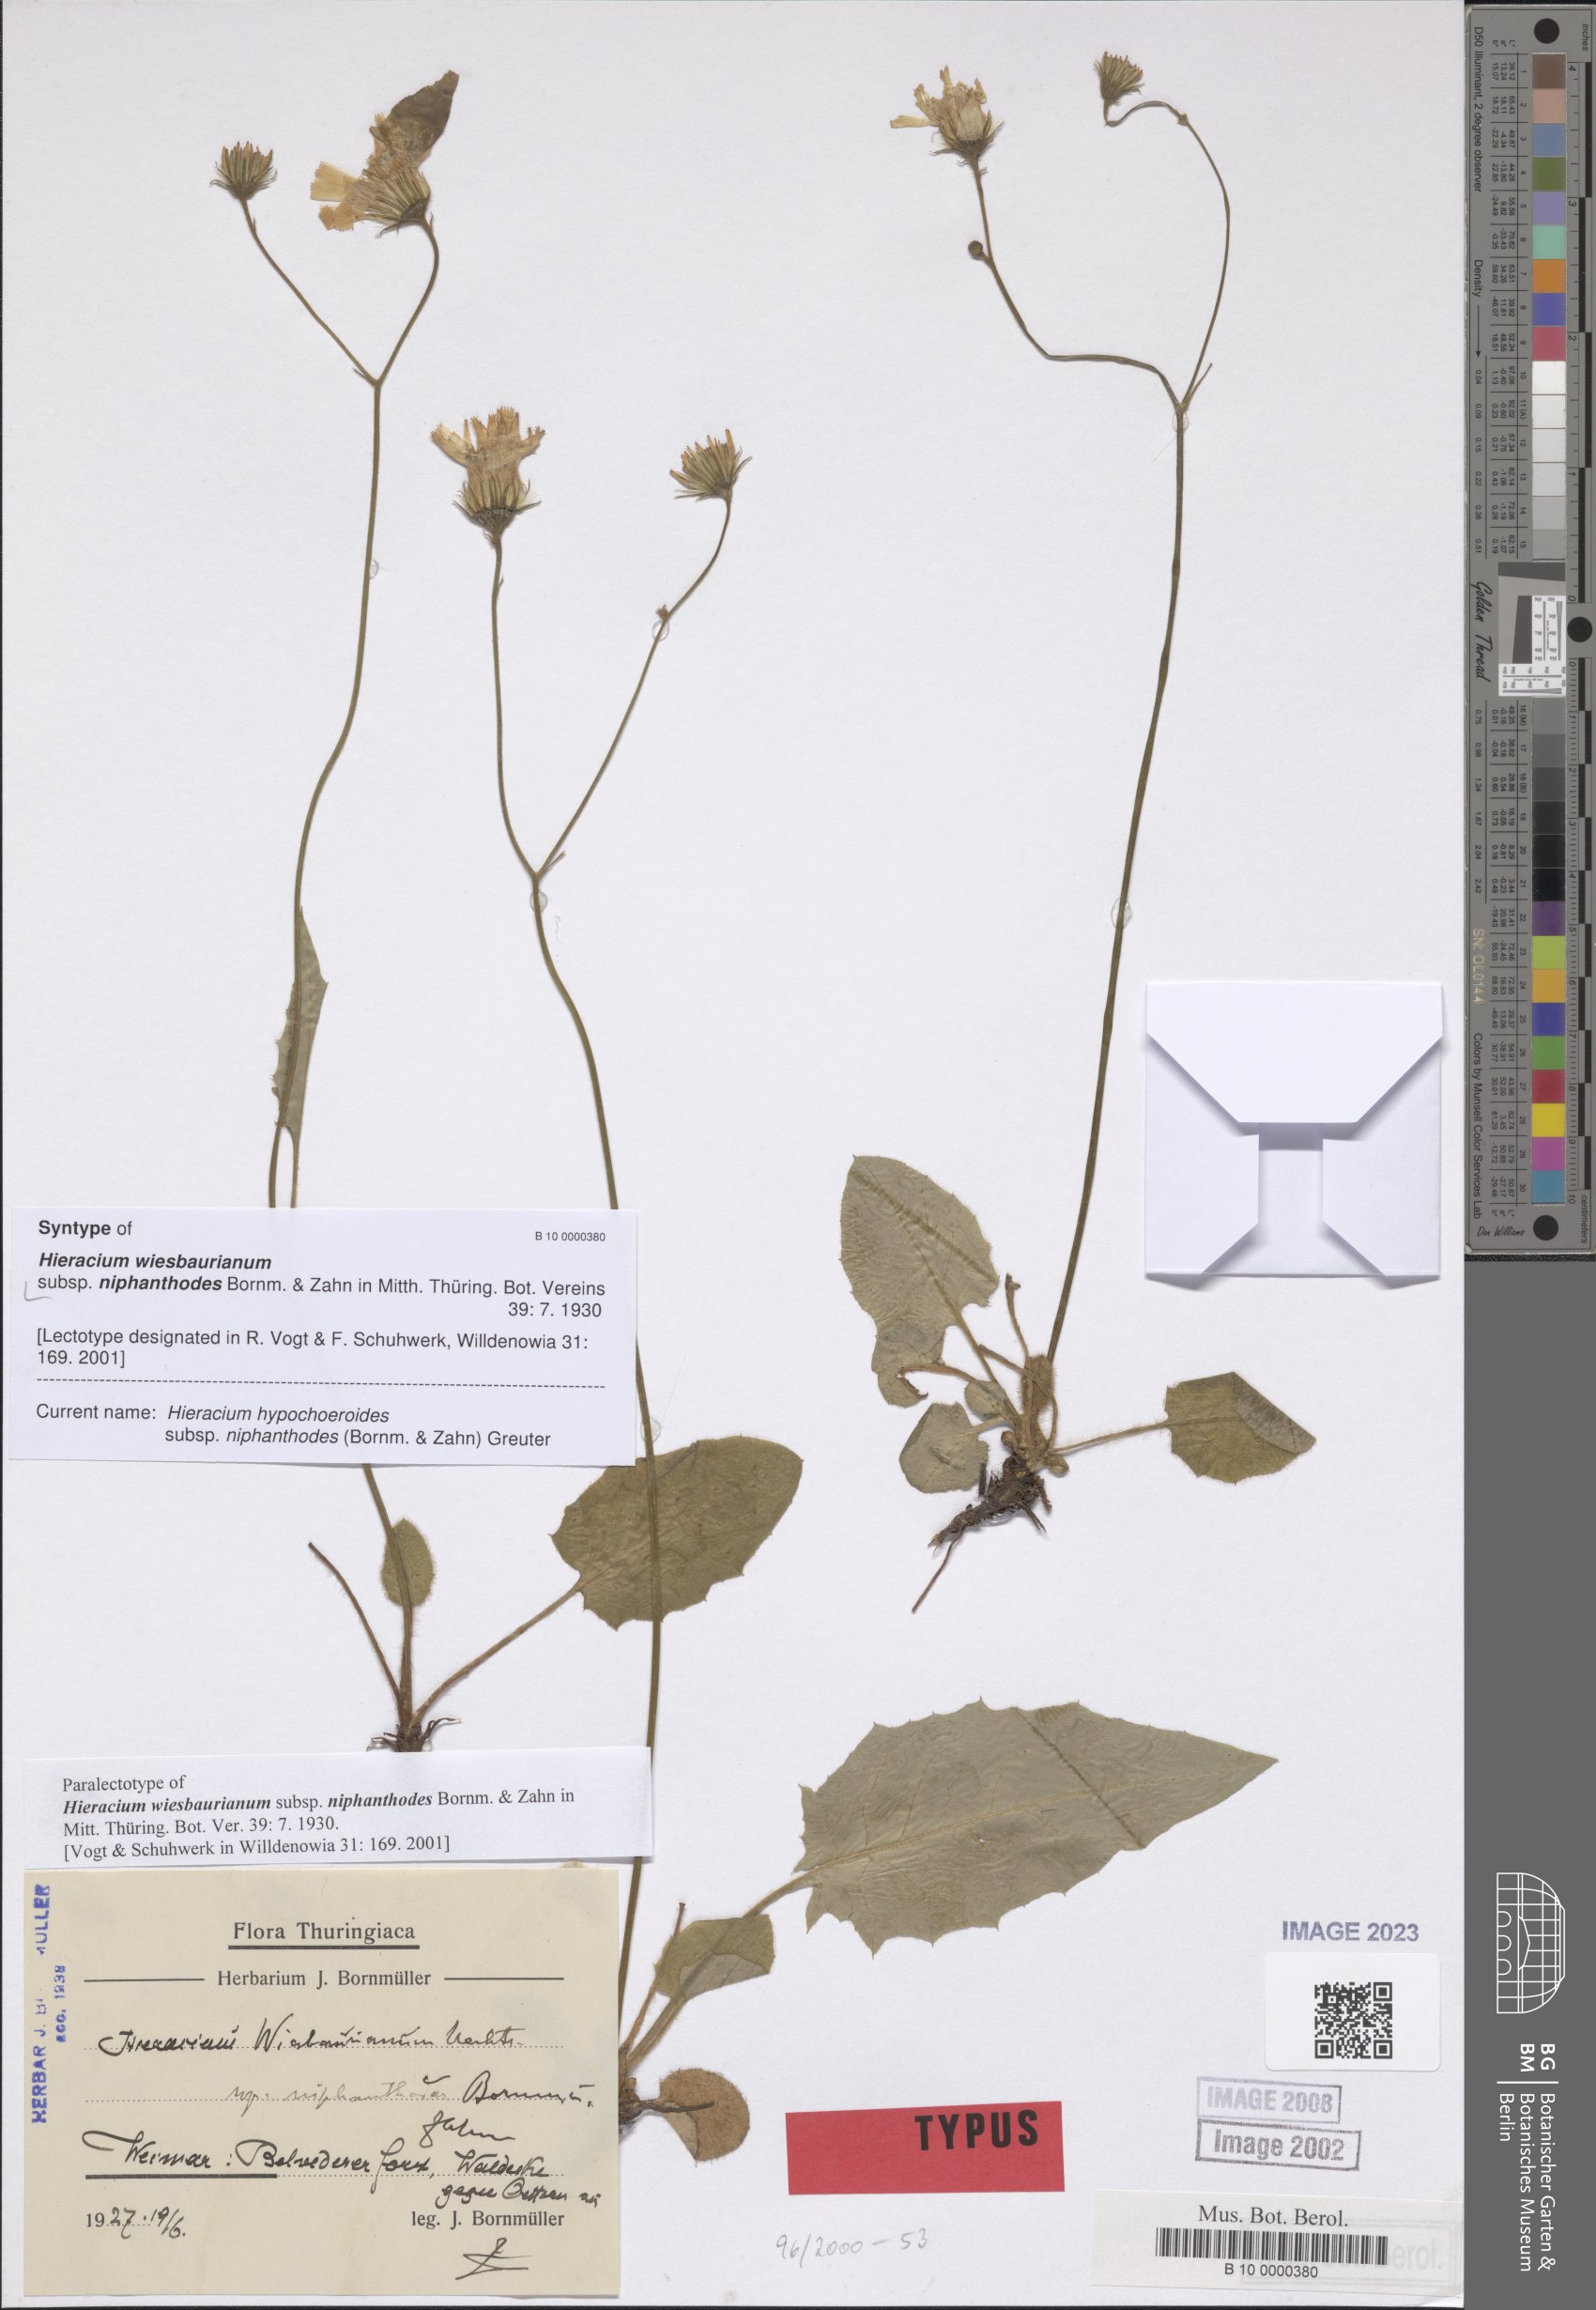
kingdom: Plantae
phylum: Tracheophyta
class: Magnoliopsida
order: Asterales
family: Asteraceae
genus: Hieracium
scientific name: Hieracium hypochoeroides
